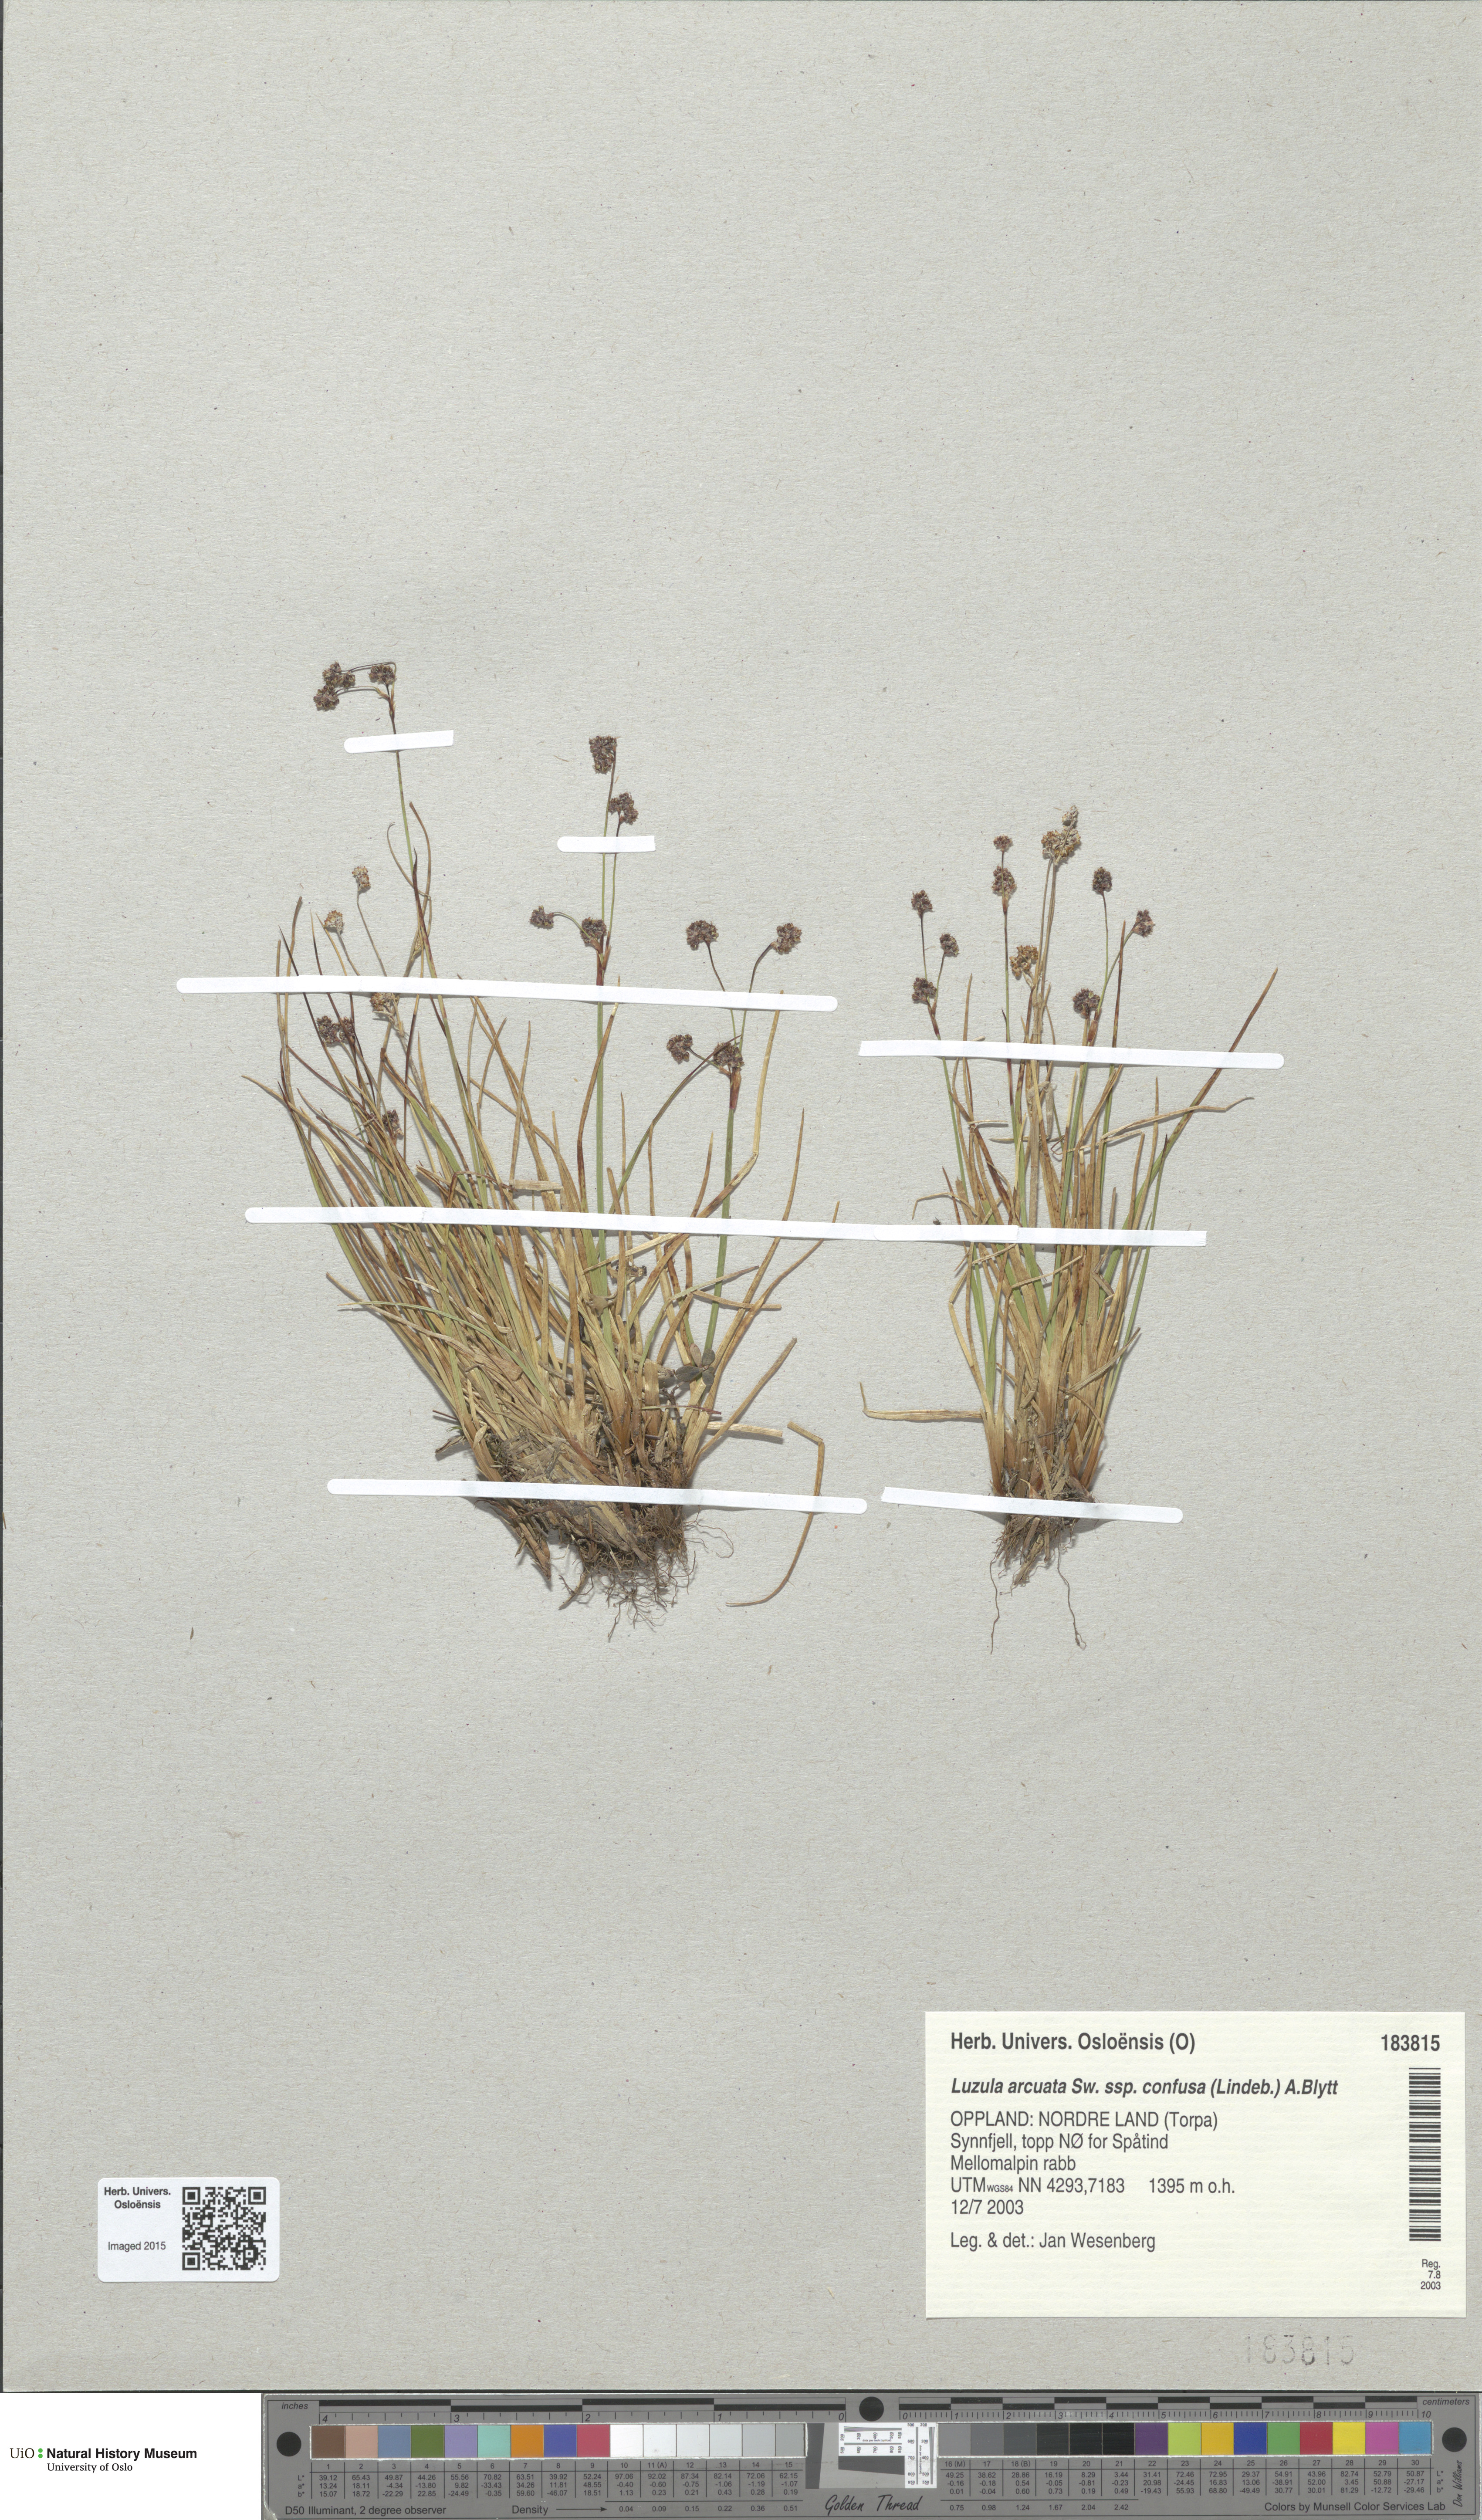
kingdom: Plantae
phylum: Tracheophyta
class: Liliopsida
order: Poales
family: Juncaceae
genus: Luzula
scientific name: Luzula confusa
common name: Northern wood rush
